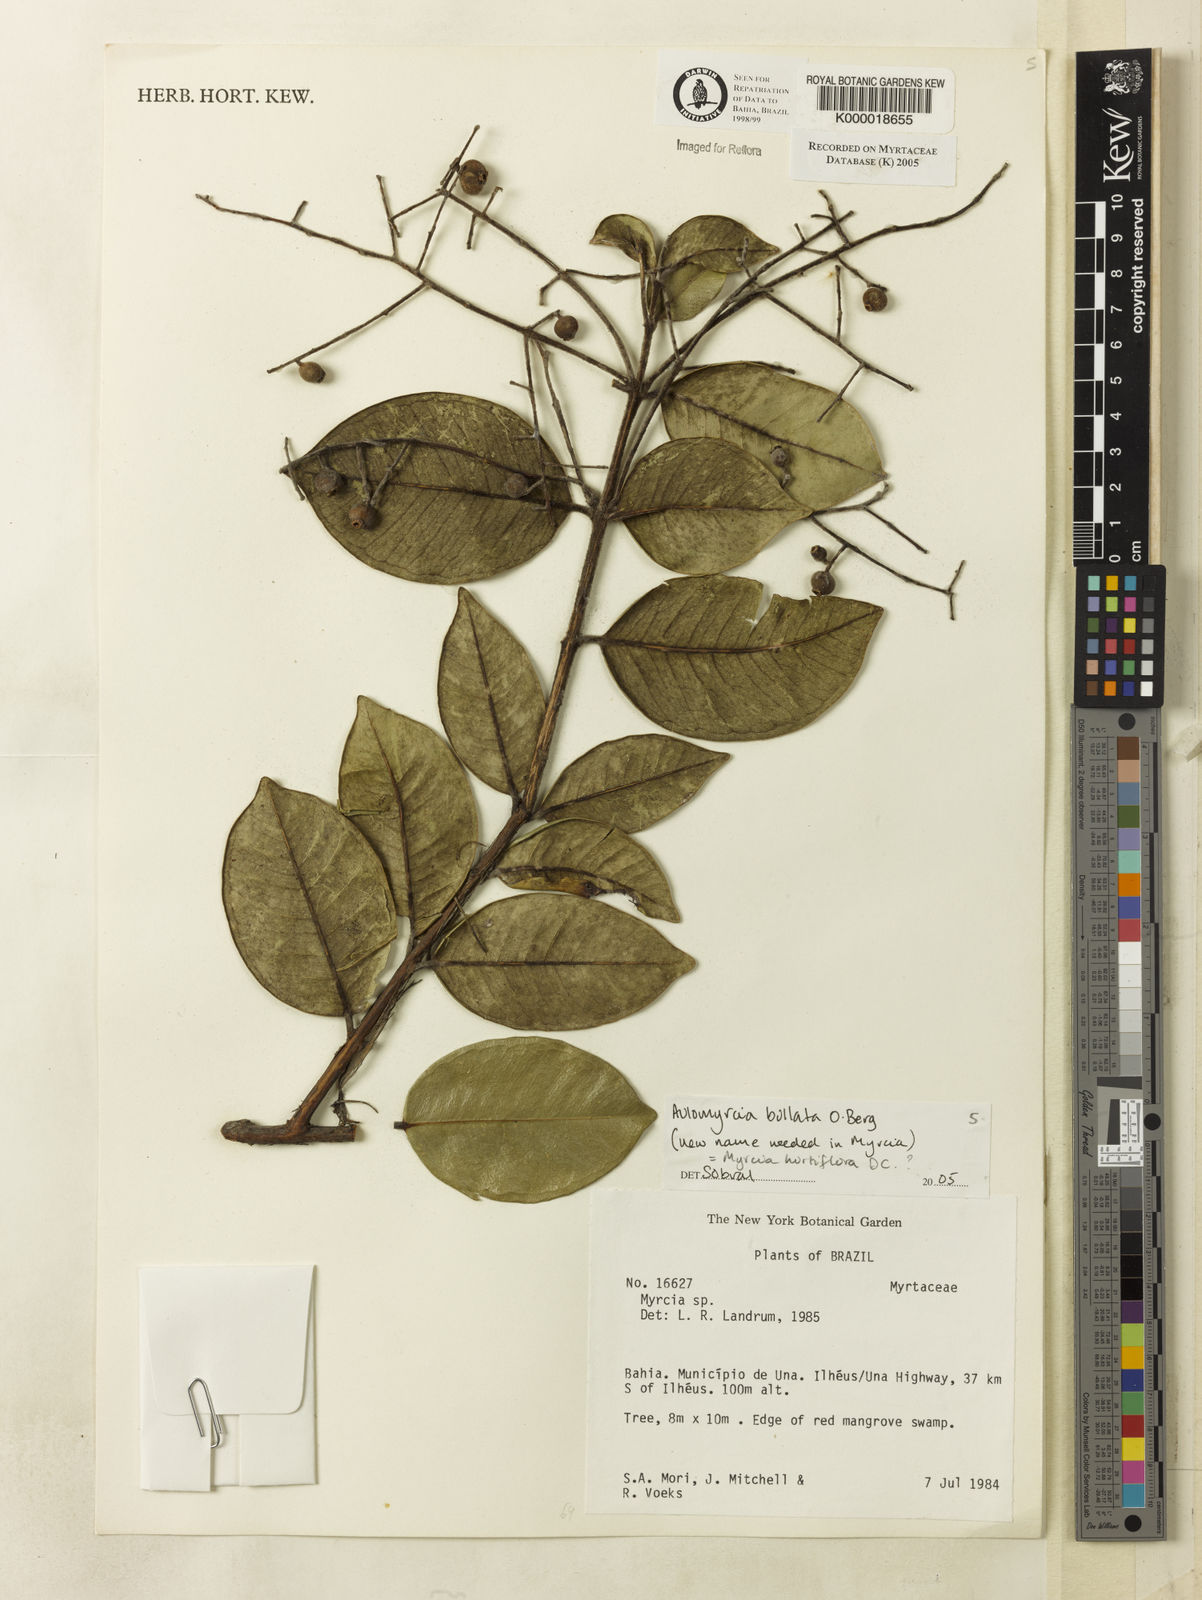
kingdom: Plantae
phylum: Tracheophyta
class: Magnoliopsida
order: Myrtales
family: Myrtaceae
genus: Myrcia
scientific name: Myrcia
